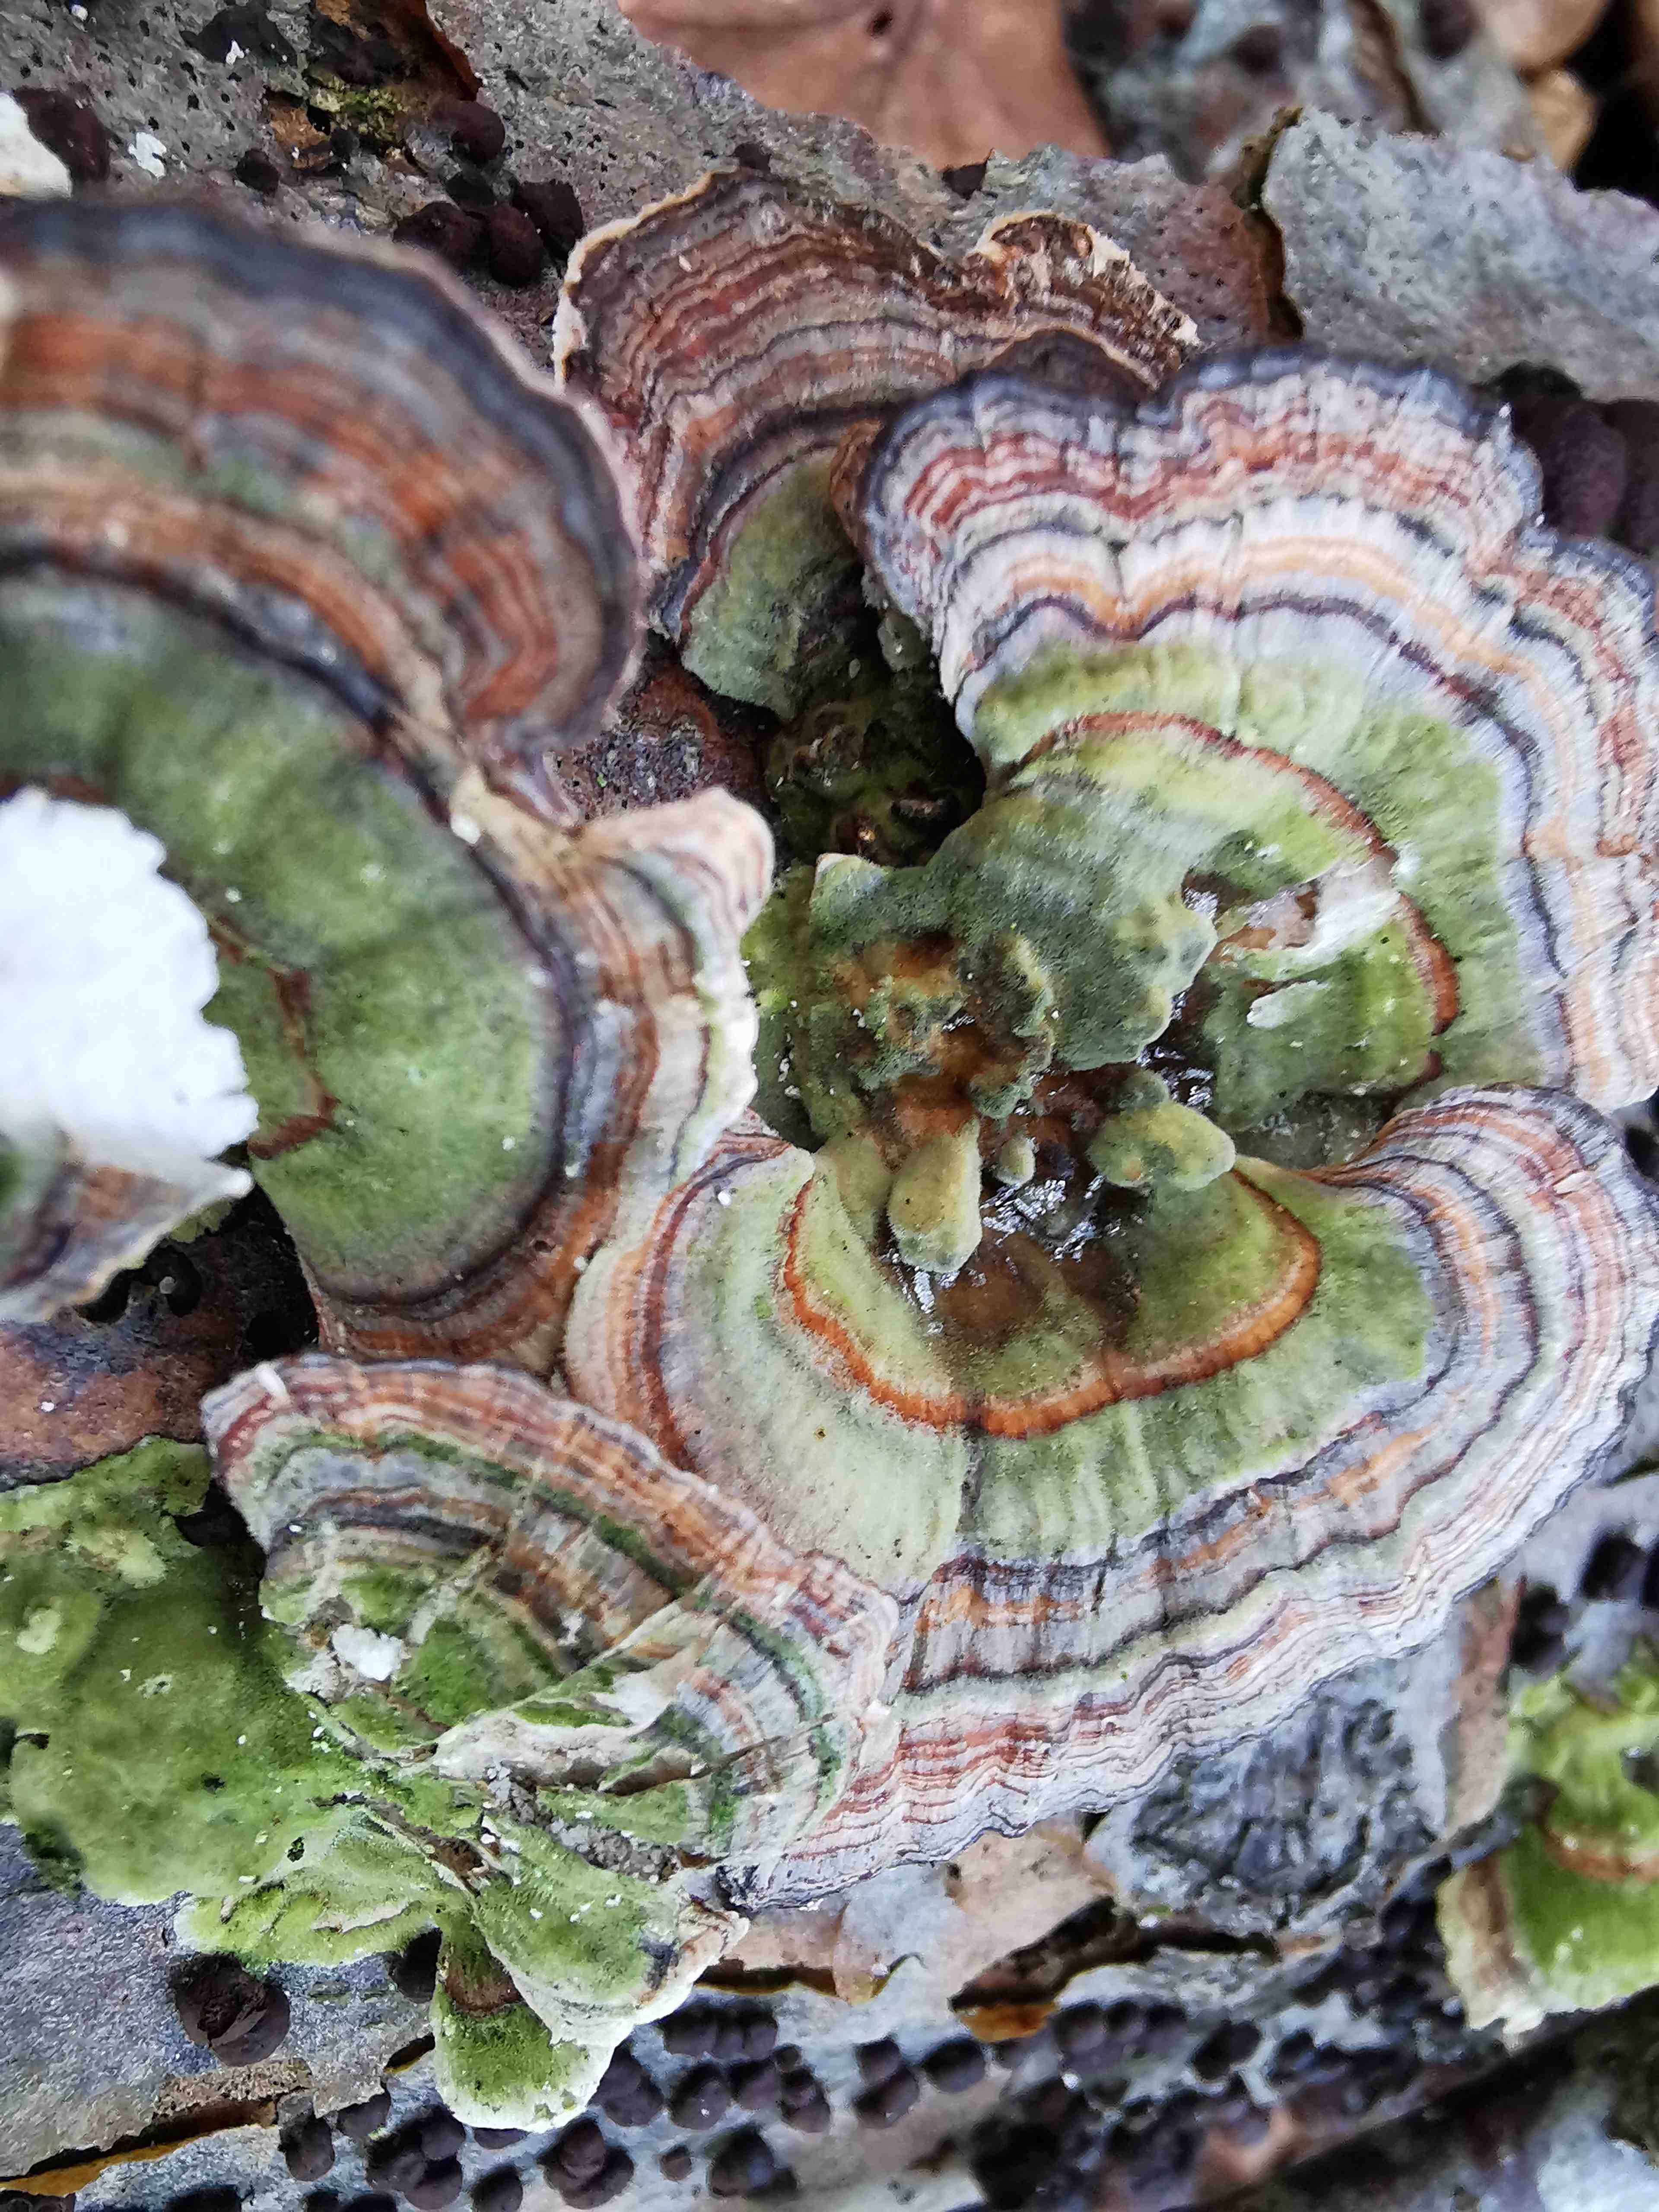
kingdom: Fungi
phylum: Basidiomycota
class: Agaricomycetes
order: Polyporales
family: Polyporaceae
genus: Trametes
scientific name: Trametes versicolor
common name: broget læderporesvamp
